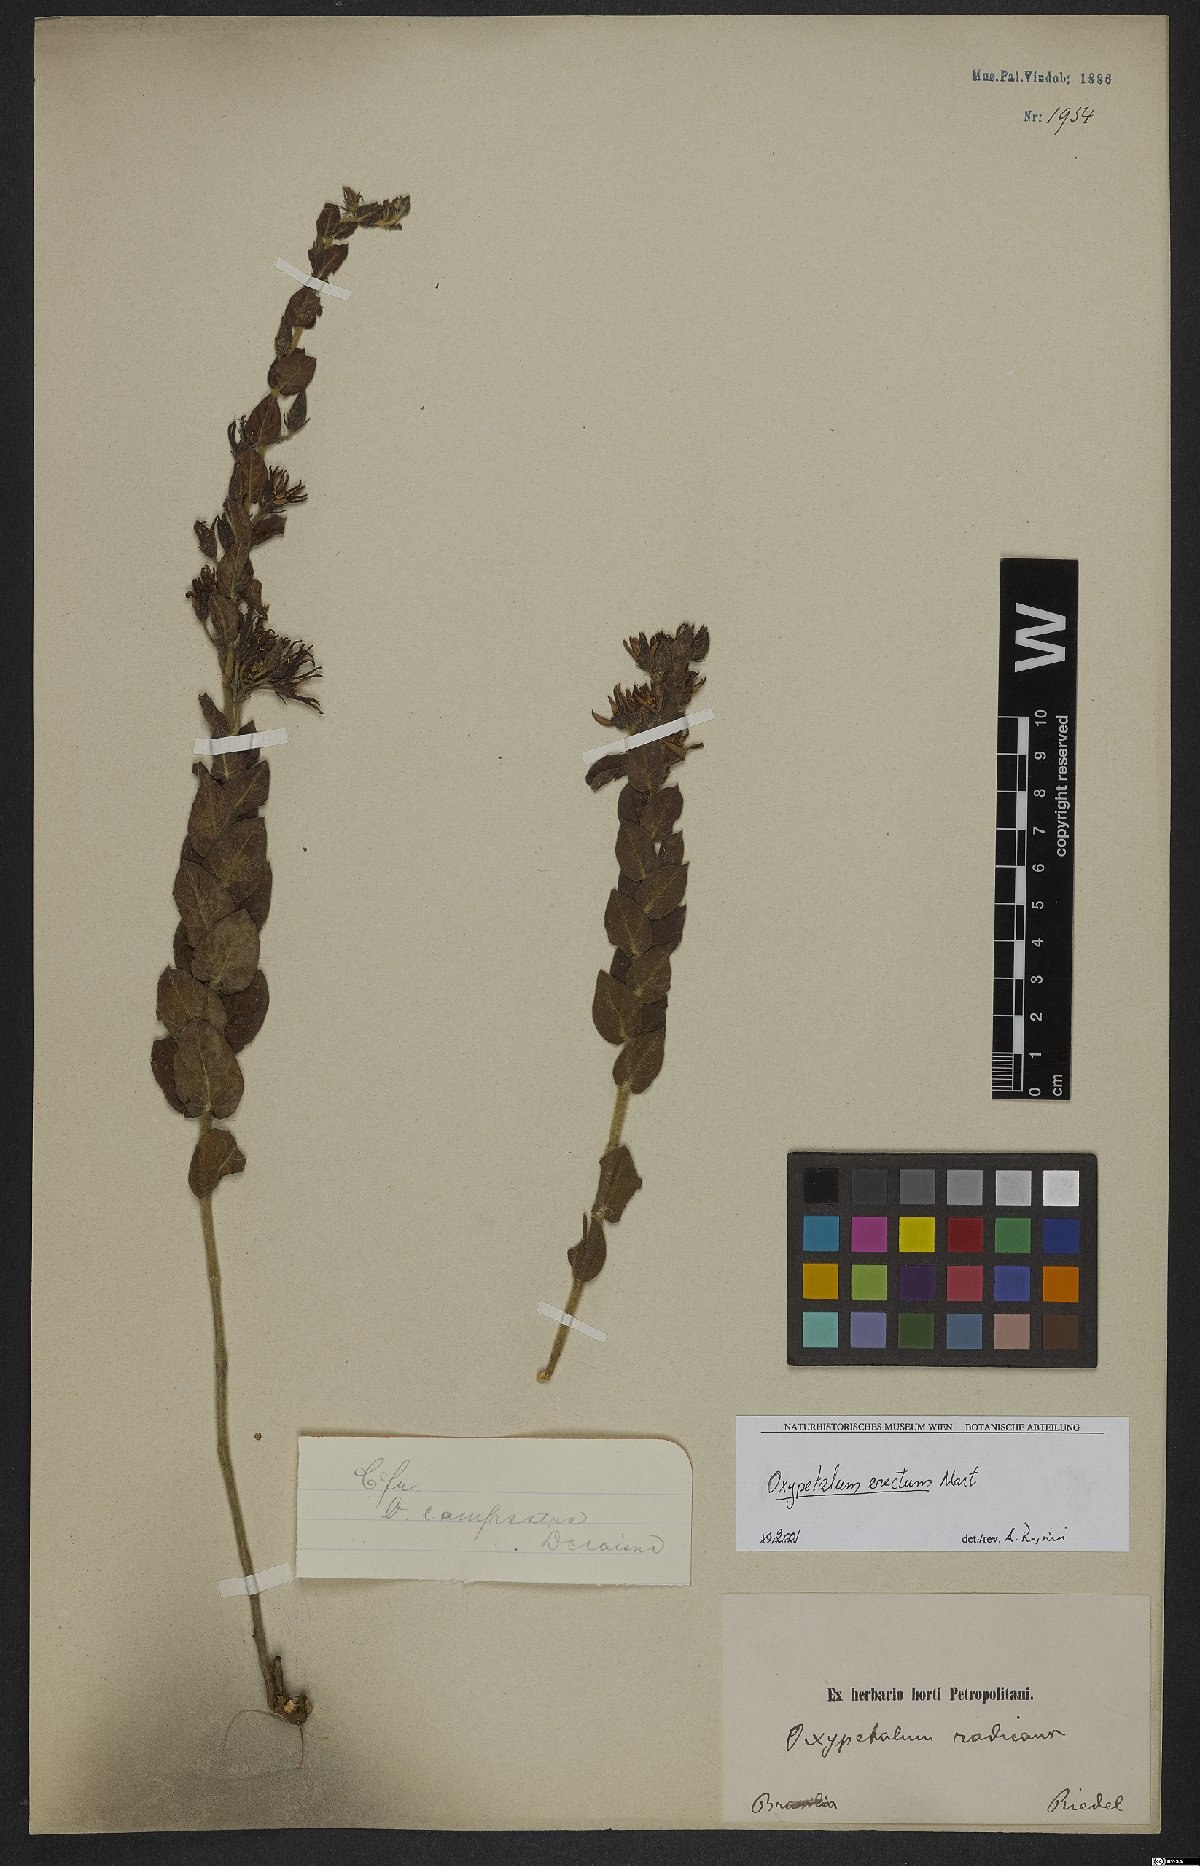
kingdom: Plantae
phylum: Tracheophyta
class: Magnoliopsida
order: Gentianales
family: Apocynaceae
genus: Oxypetalum
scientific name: Oxypetalum erectum
